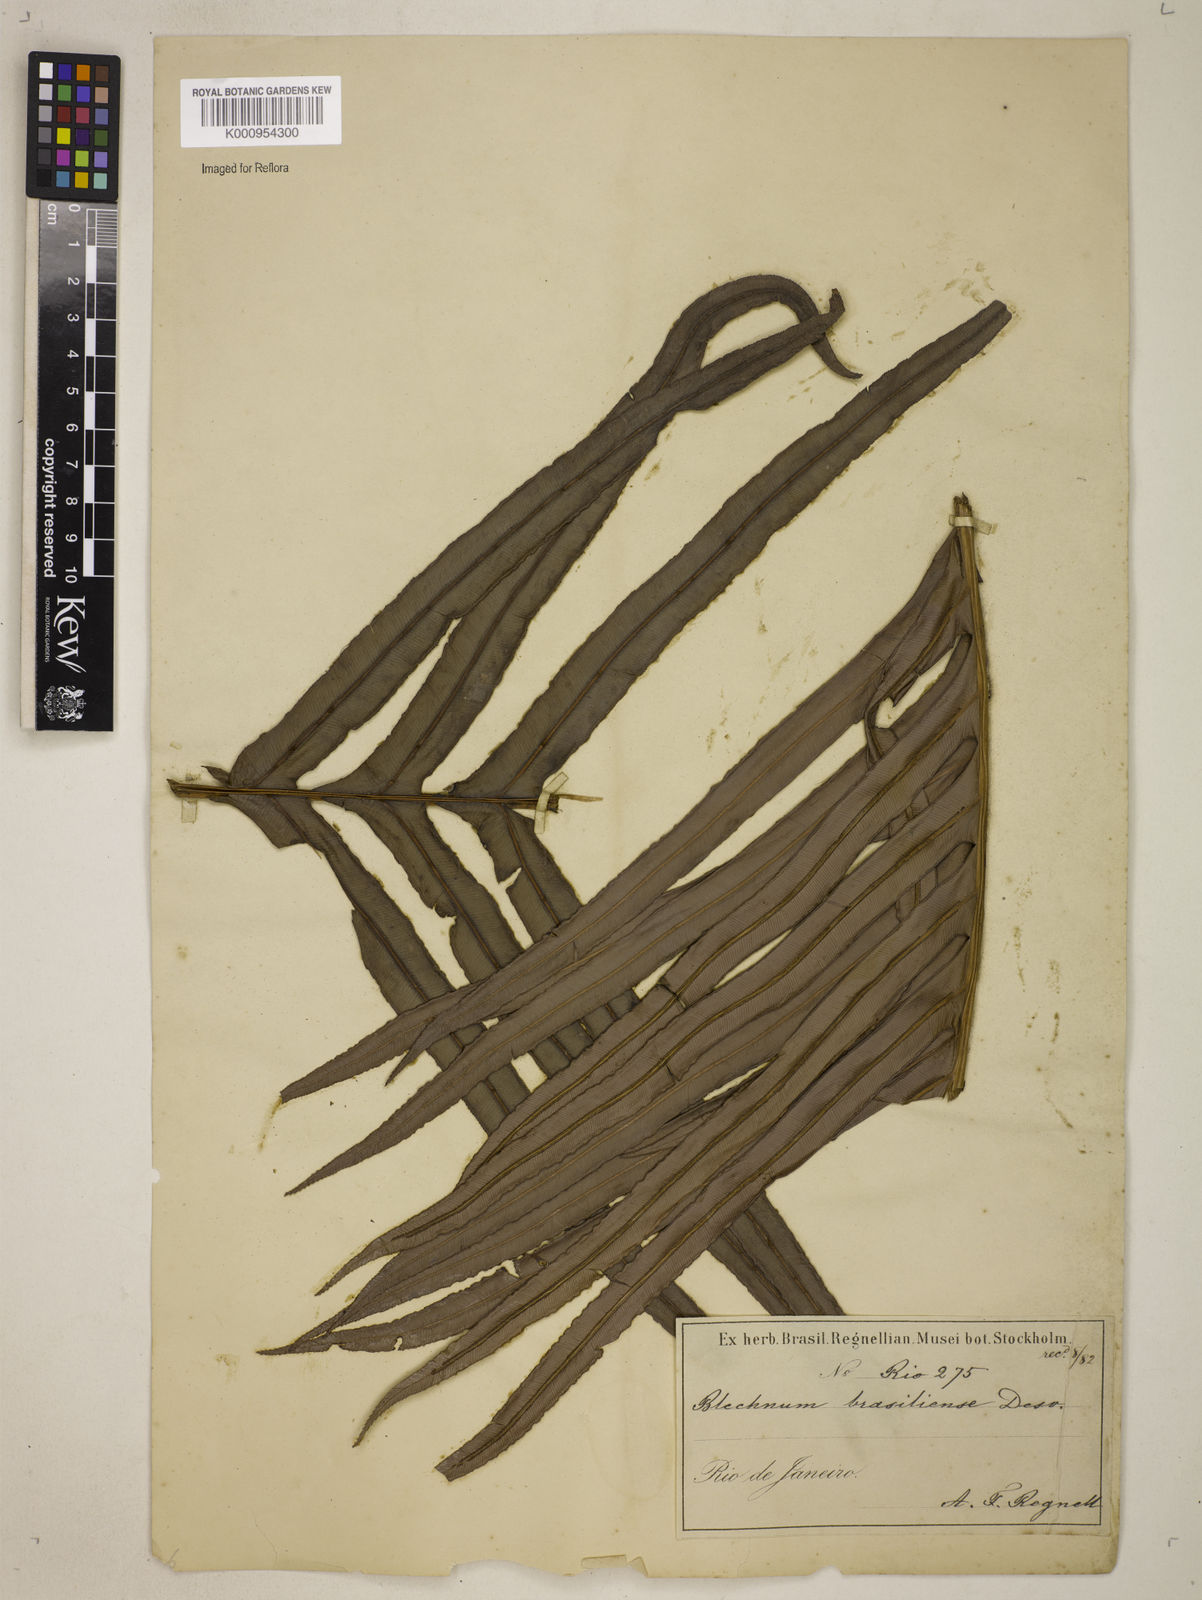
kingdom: Plantae
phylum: Tracheophyta
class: Polypodiopsida
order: Polypodiales
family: Blechnaceae
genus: Neoblechnum
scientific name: Neoblechnum brasiliense
